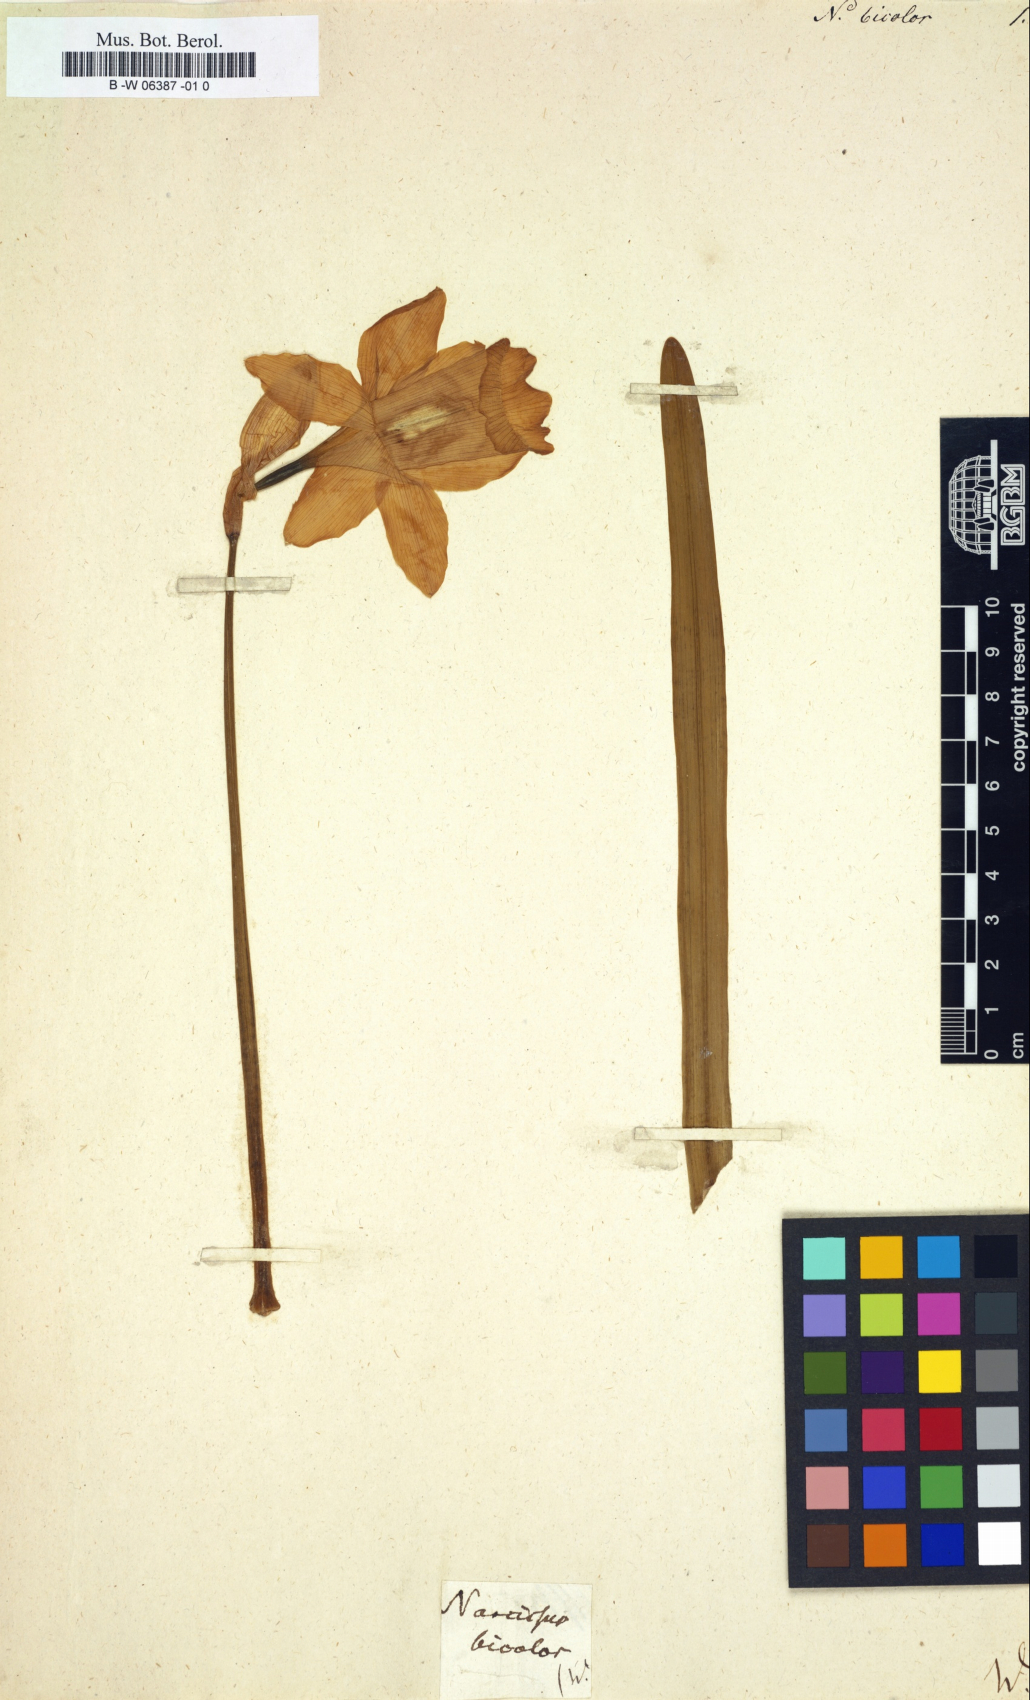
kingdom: Plantae
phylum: Tracheophyta
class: Liliopsida
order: Asparagales
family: Amaryllidaceae
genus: Narcissus
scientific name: Narcissus bicolor
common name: Two-color daffodil
